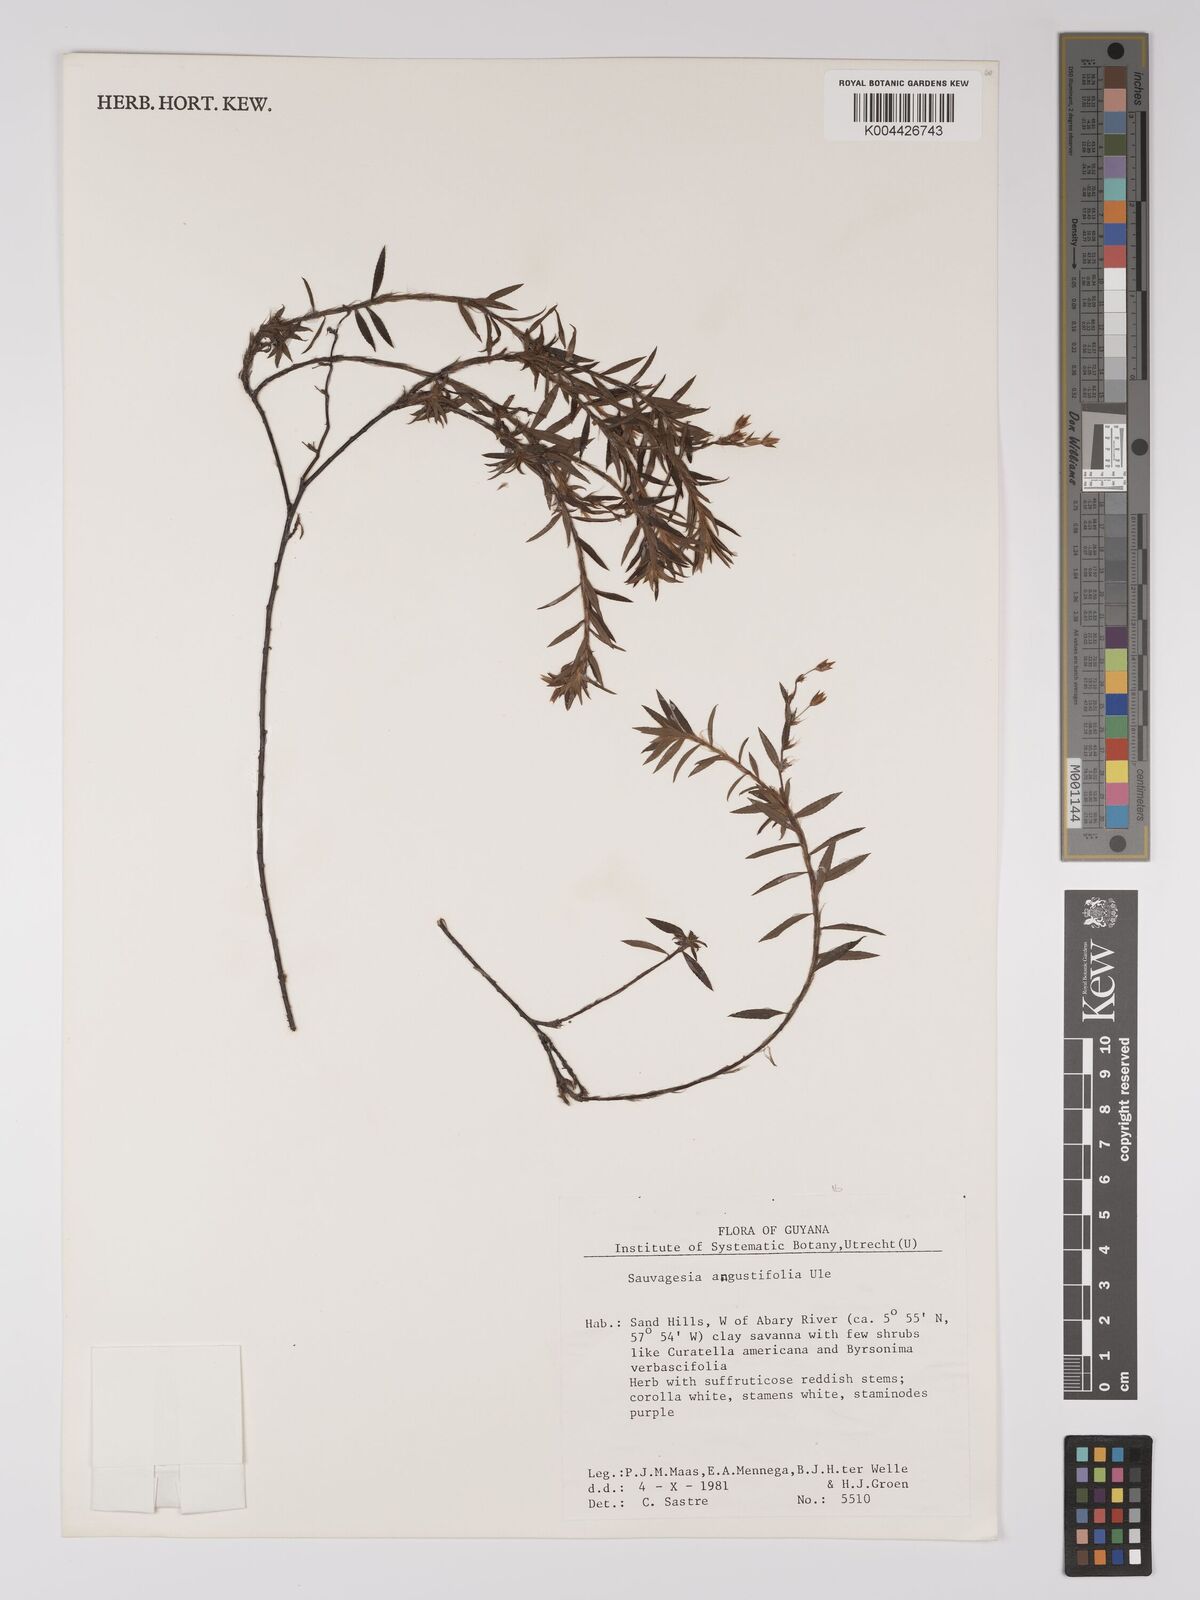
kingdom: Plantae
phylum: Tracheophyta
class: Magnoliopsida
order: Malpighiales
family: Ochnaceae
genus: Sauvagesia
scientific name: Sauvagesia angustifolia
